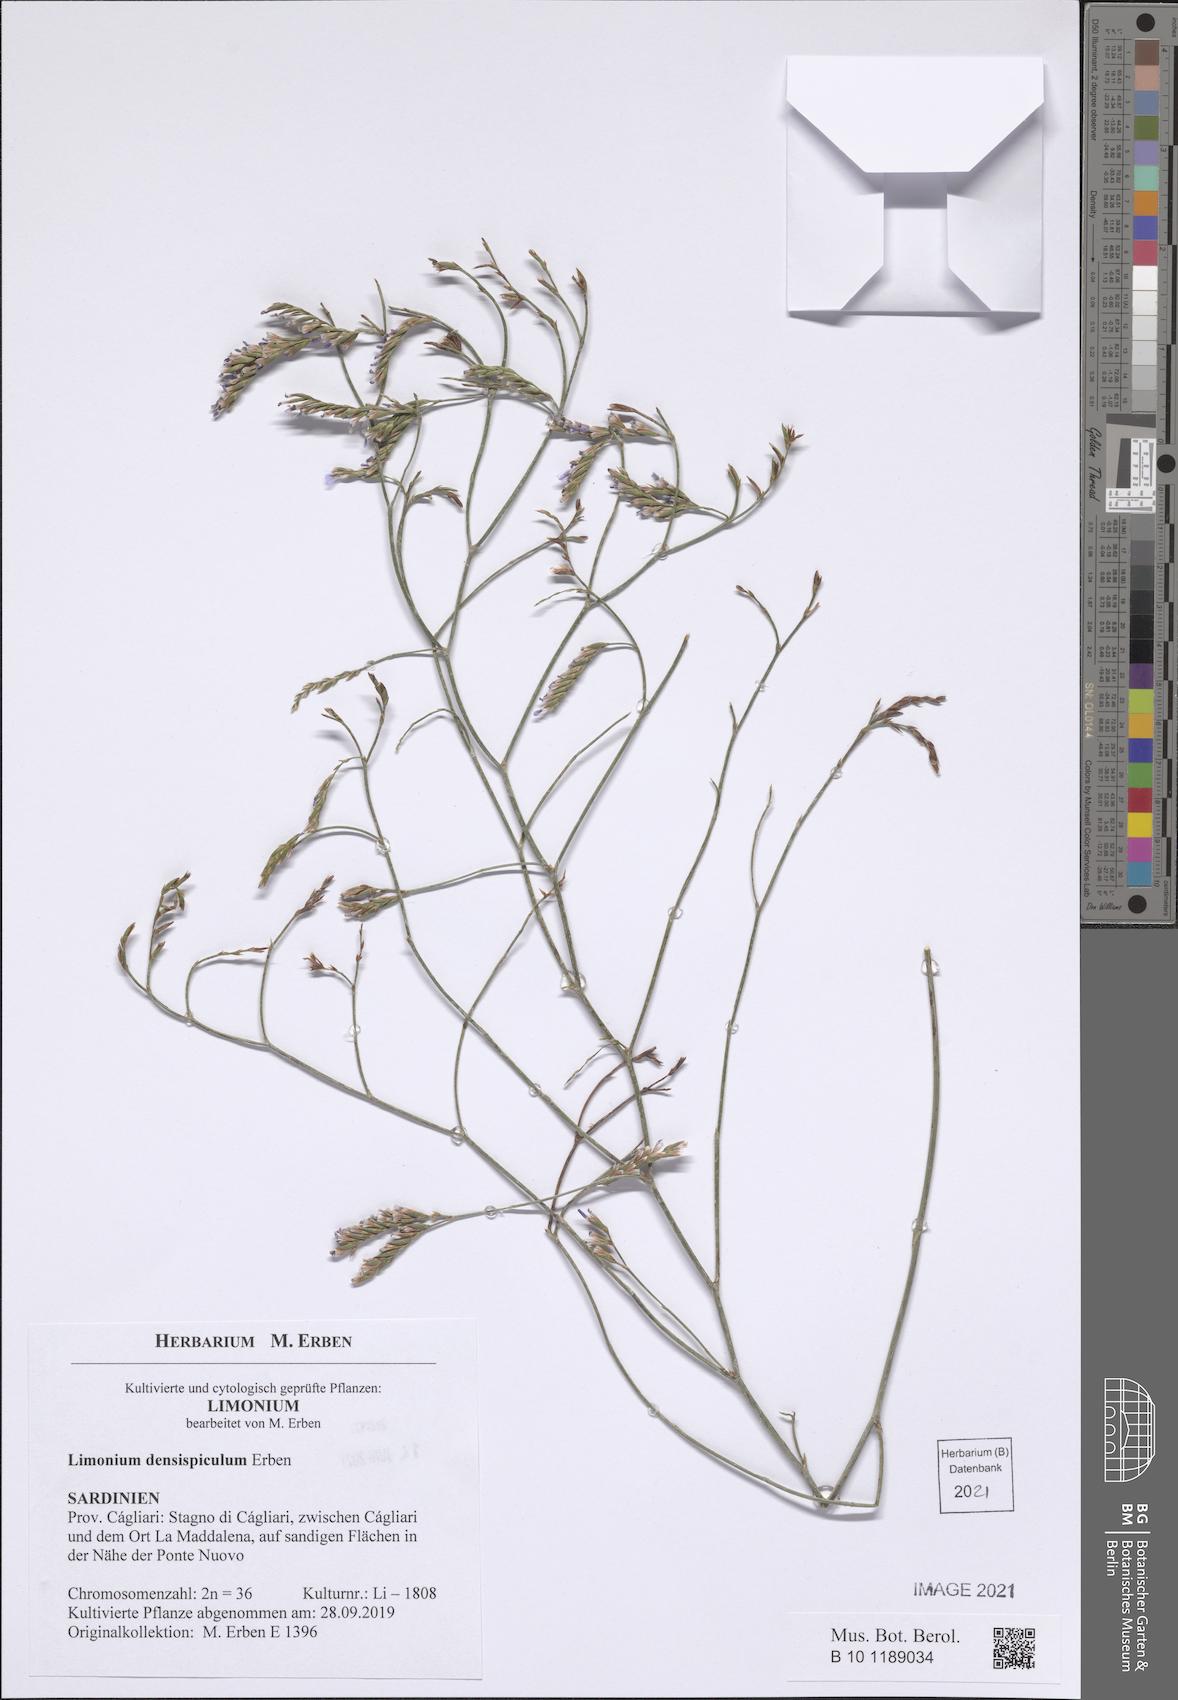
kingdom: Plantae
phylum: Tracheophyta
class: Magnoliopsida
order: Caryophyllales
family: Plumbaginaceae
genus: Limonium
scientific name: Limonium
